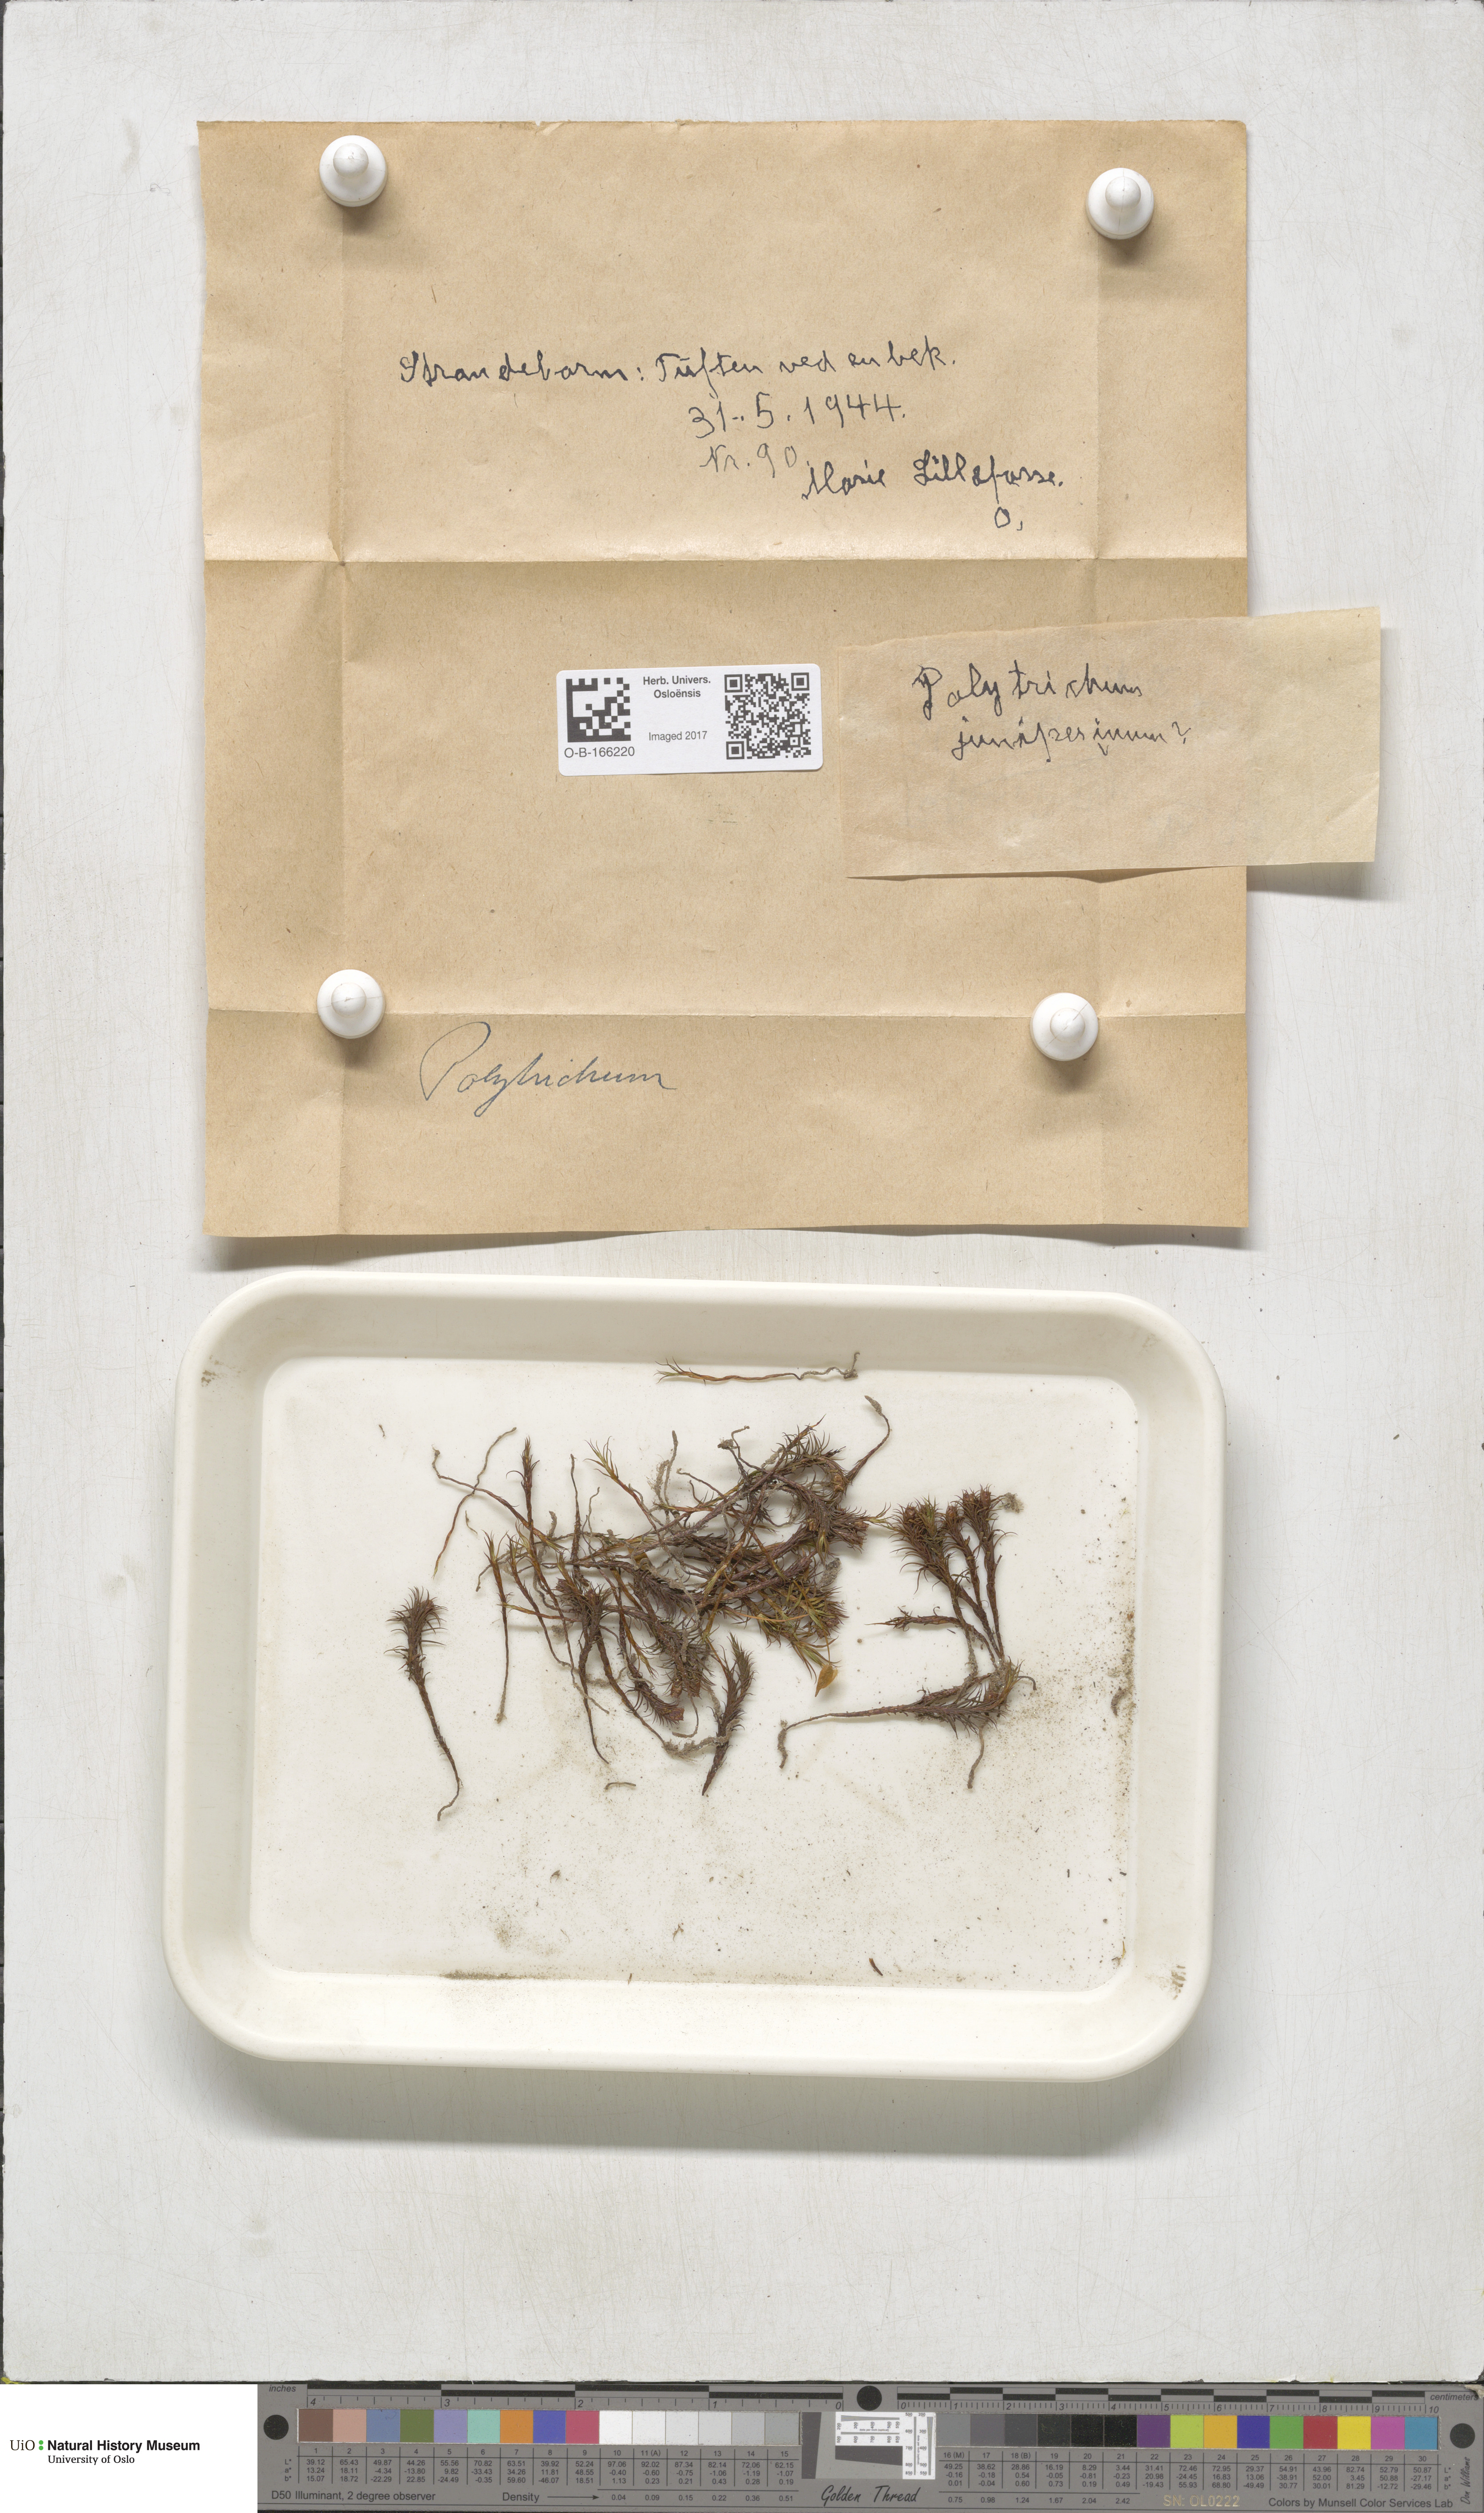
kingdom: Plantae
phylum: Bryophyta
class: Polytrichopsida
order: Polytrichales
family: Polytrichaceae
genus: Polytrichum
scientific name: Polytrichum
